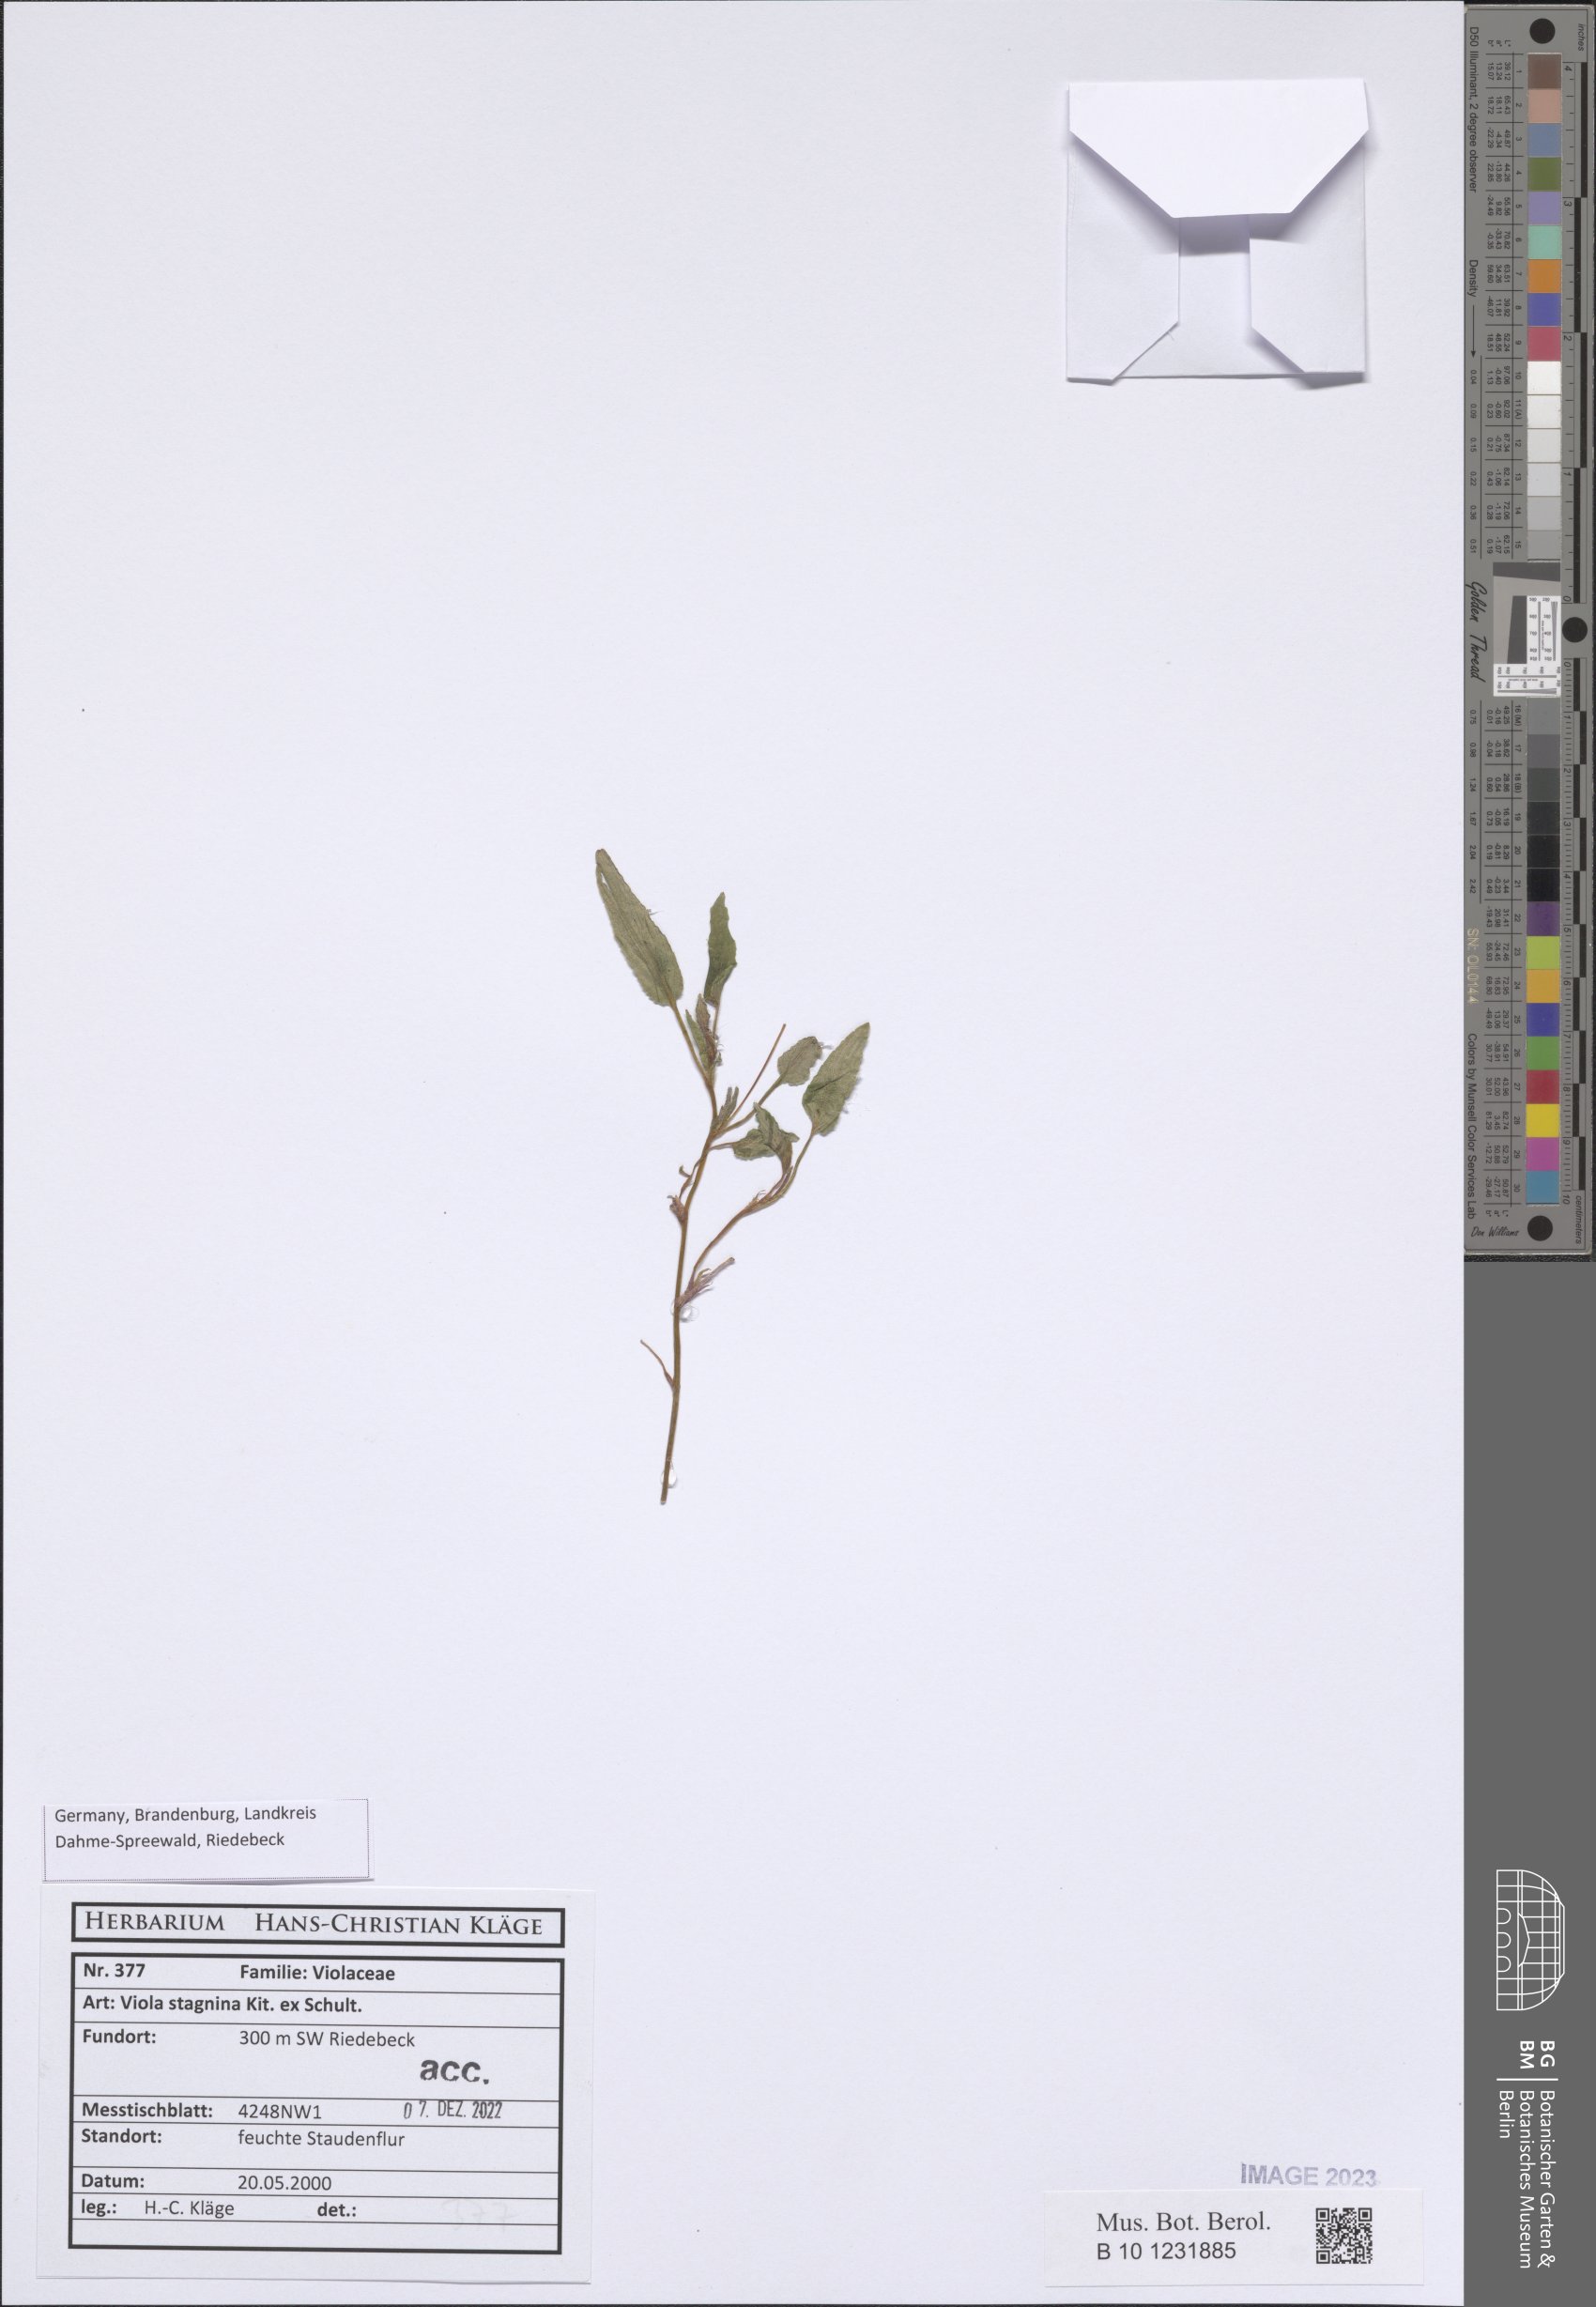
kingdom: Plantae
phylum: Tracheophyta
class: Magnoliopsida
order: Malpighiales
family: Violaceae
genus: Viola
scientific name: Viola stagnina
